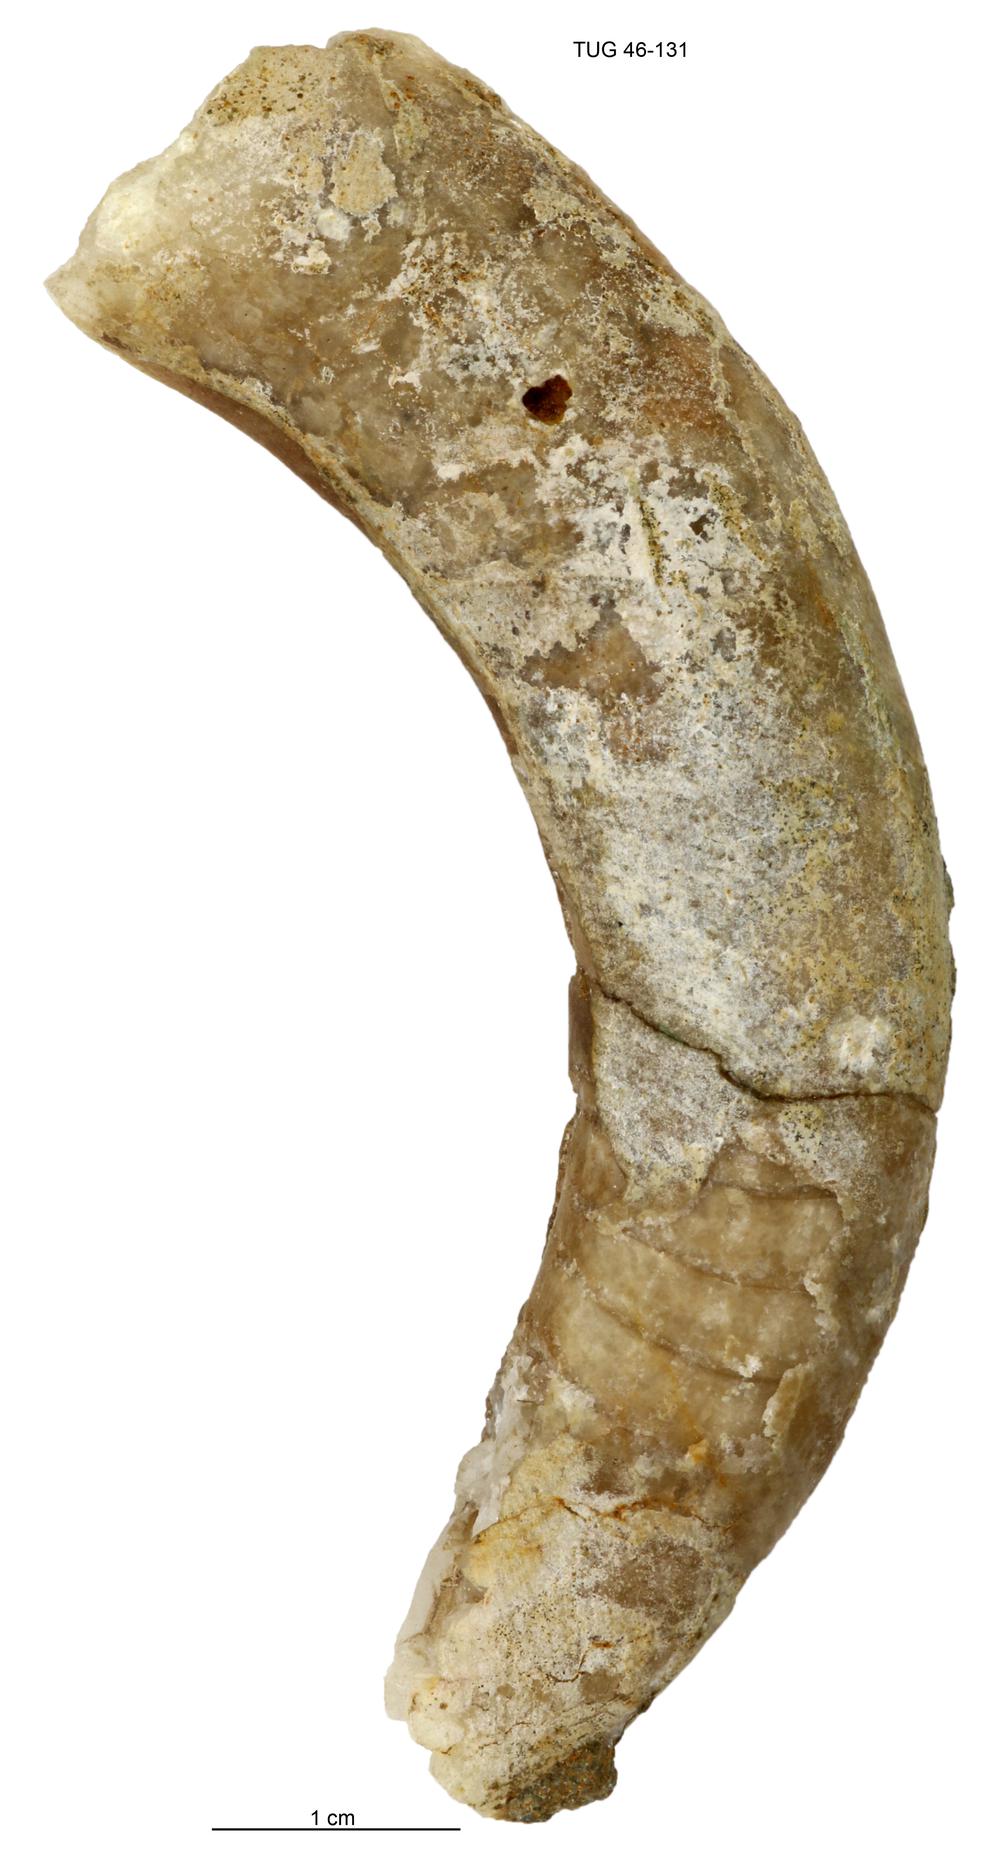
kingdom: Animalia
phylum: Mollusca
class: Cephalopoda
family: Tarphyceratidae
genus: Tarphyceras
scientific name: Tarphyceras
